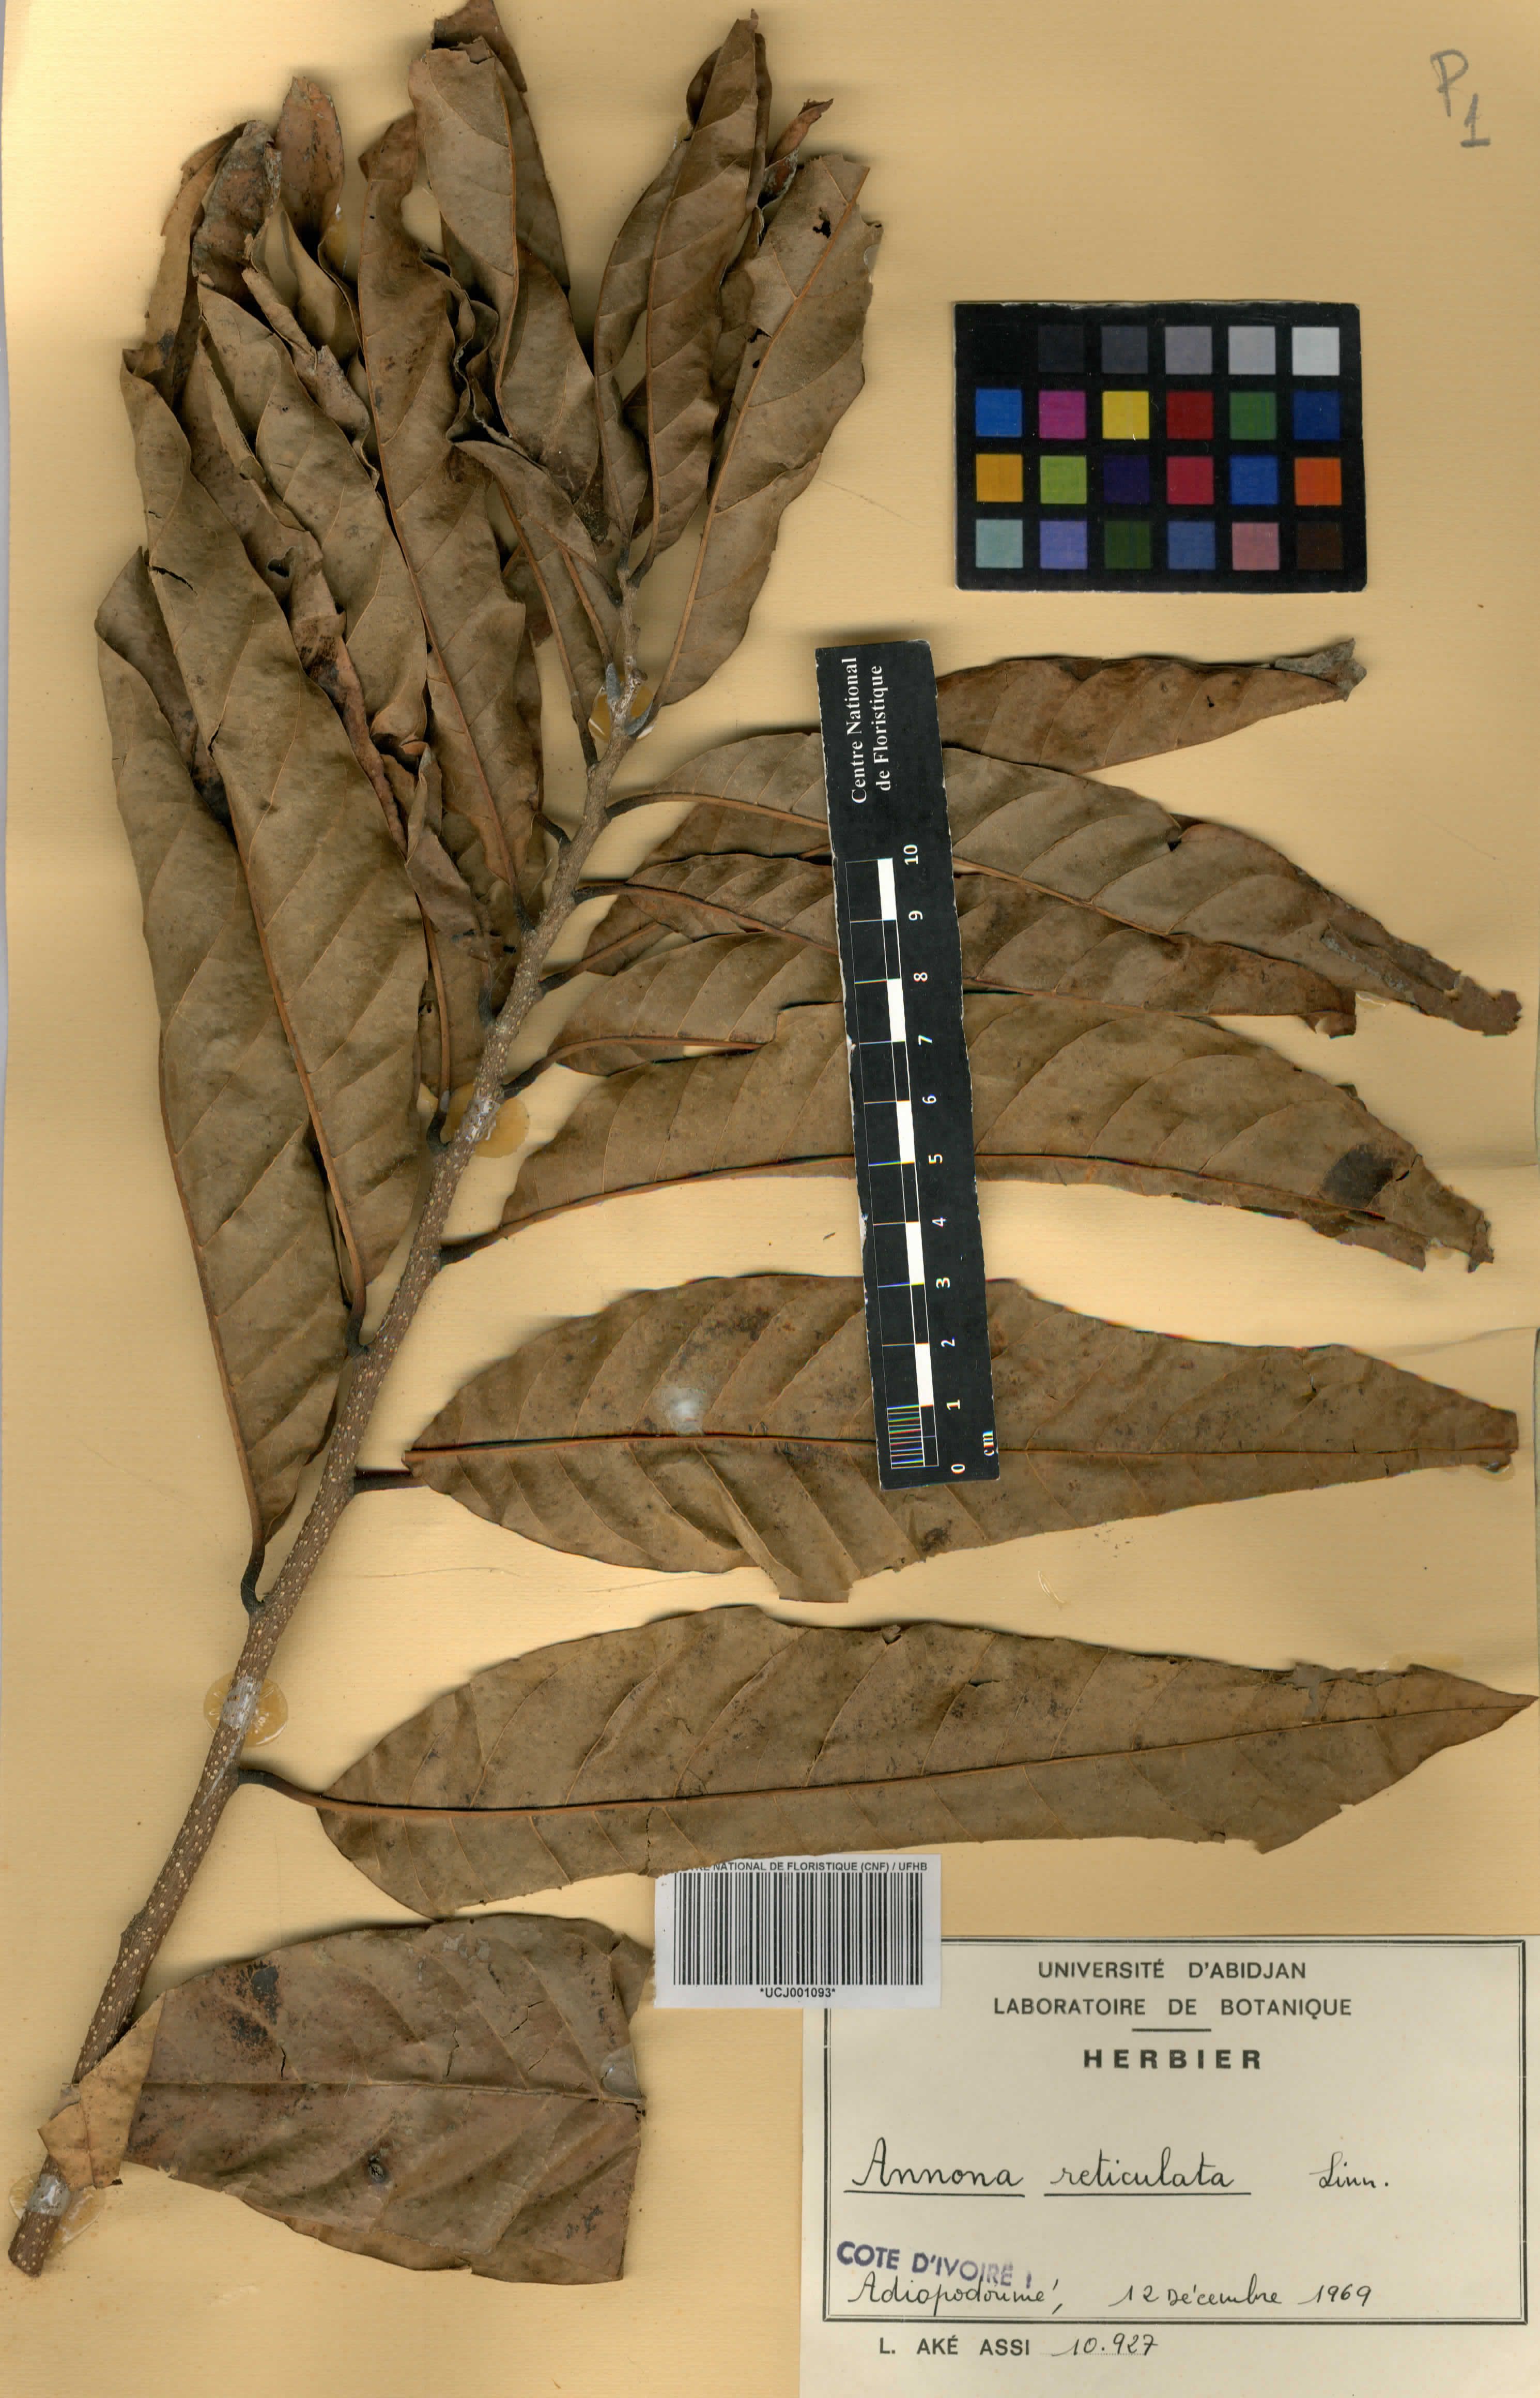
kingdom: Plantae
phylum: Tracheophyta
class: Magnoliopsida
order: Magnoliales
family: Annonaceae
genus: Annona
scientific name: Annona reticulata
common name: Custard apple
